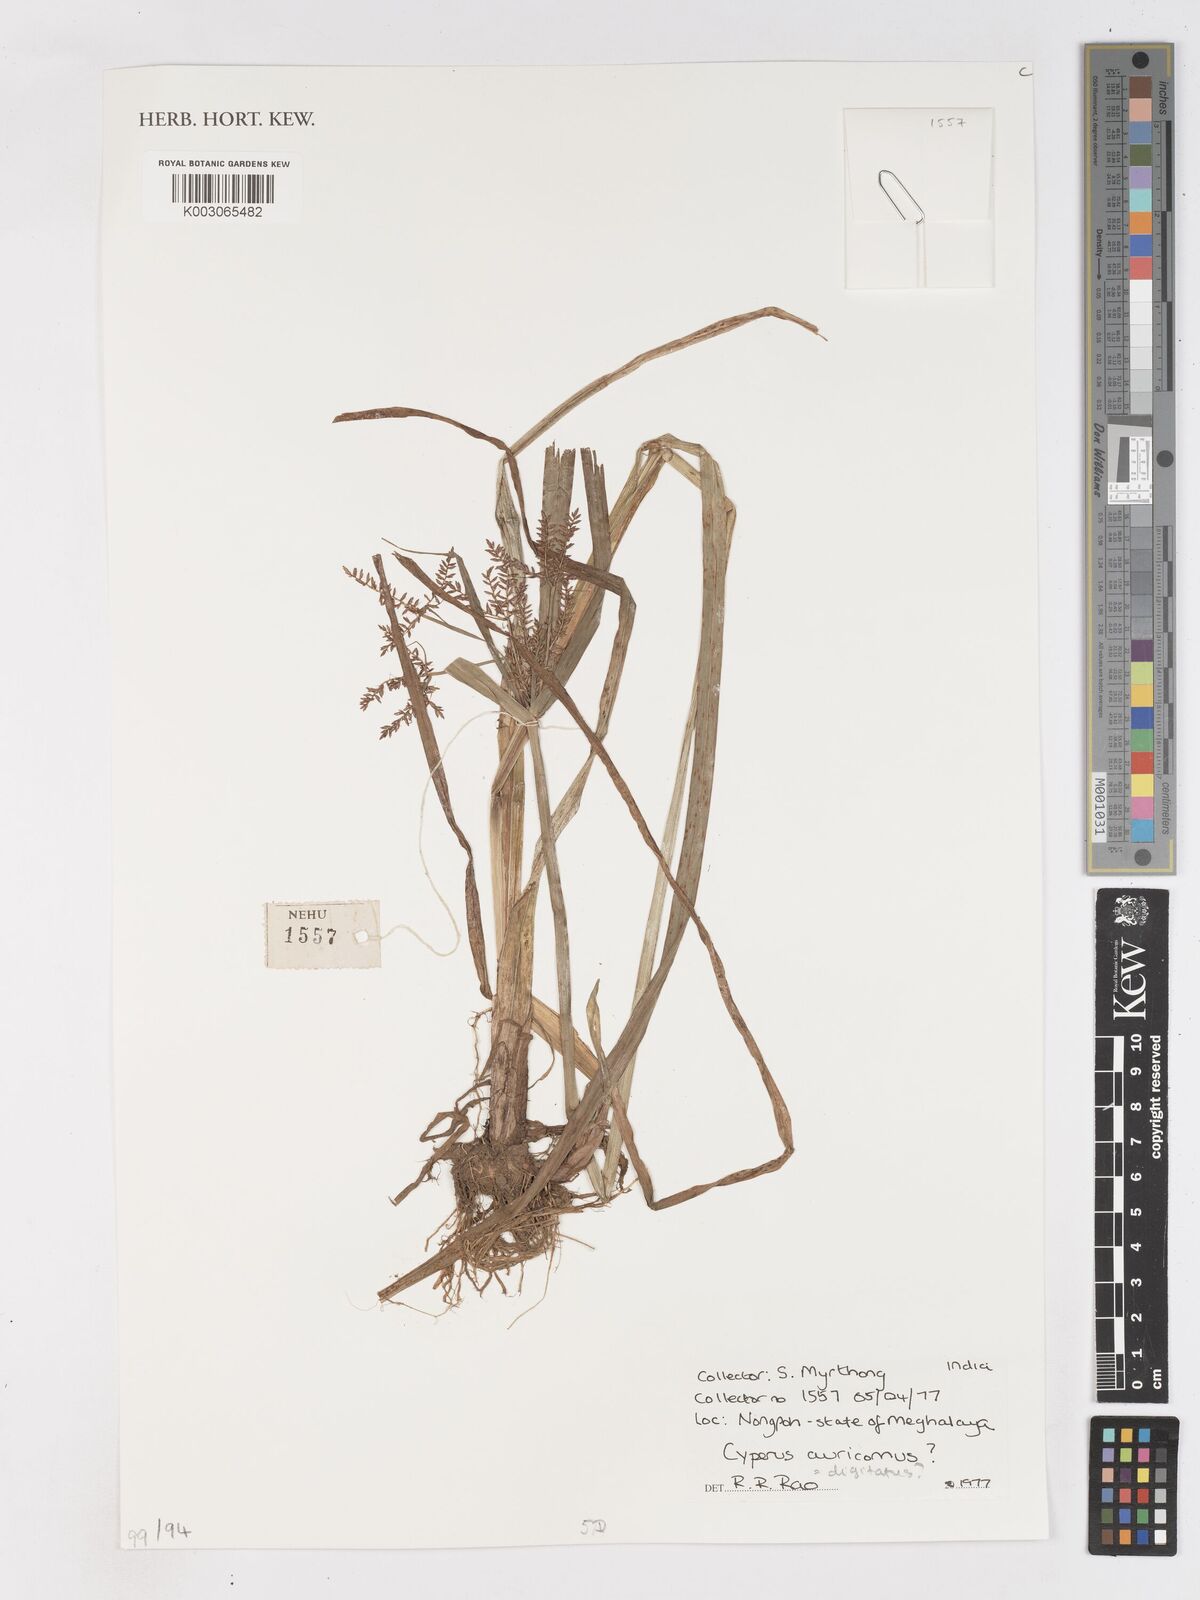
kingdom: Plantae
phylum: Tracheophyta
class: Liliopsida
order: Poales
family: Cyperaceae
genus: Cyperus
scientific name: Cyperus digitatus
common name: Finger flatsedge
